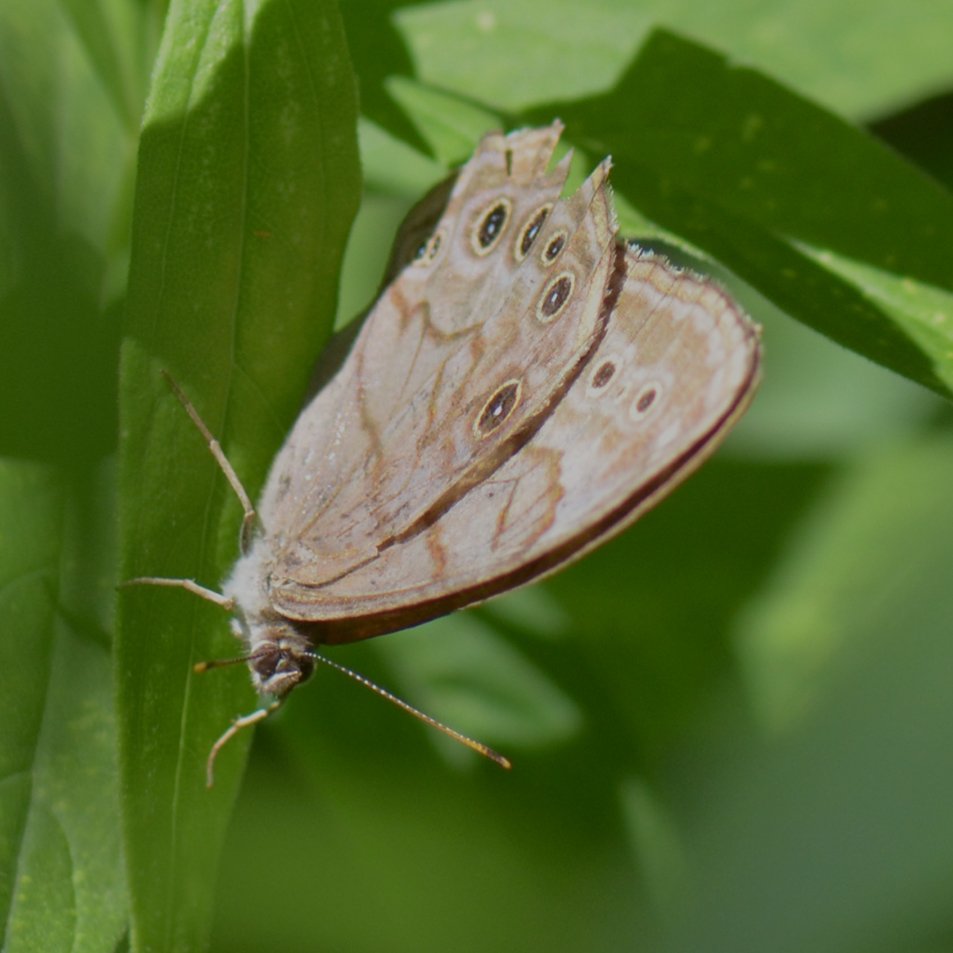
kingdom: Animalia
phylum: Arthropoda
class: Insecta
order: Lepidoptera
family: Nymphalidae
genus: Lethe
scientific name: Lethe anthedon
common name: Northern Pearly-Eye
